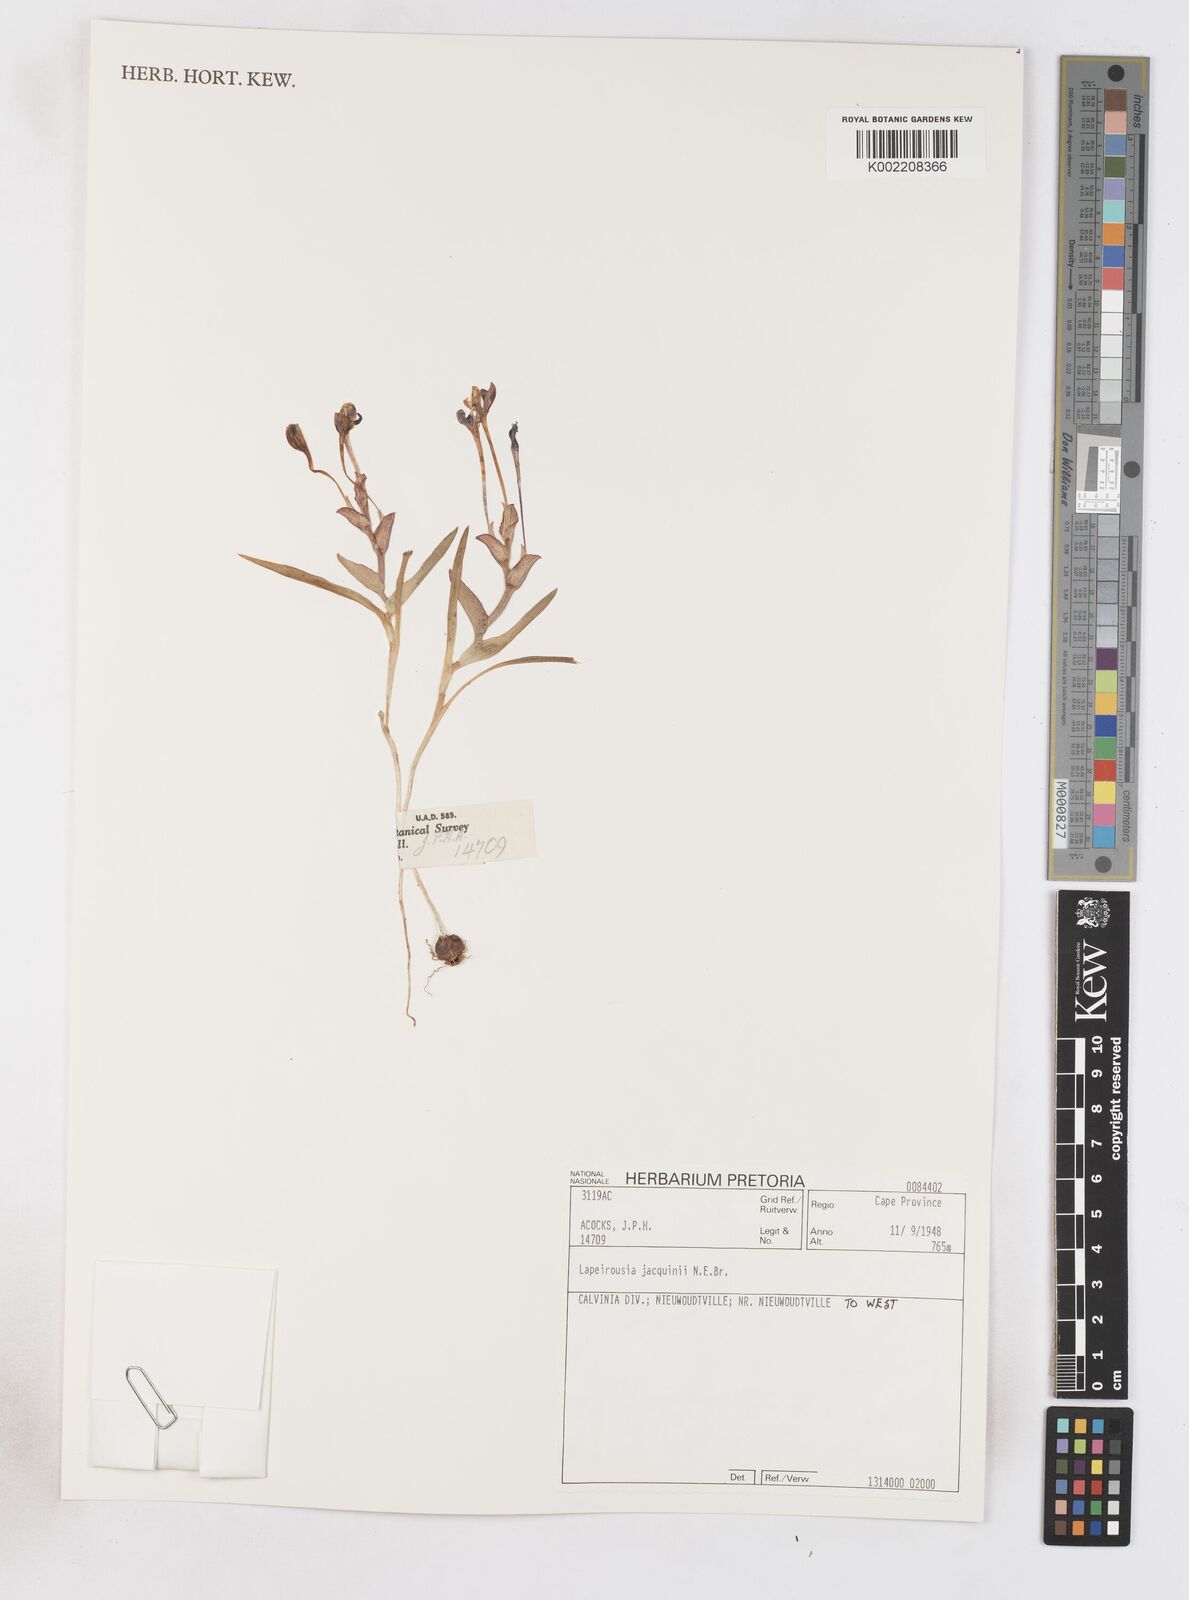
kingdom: Plantae
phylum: Tracheophyta
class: Liliopsida
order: Asparagales
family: Iridaceae
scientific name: Iridaceae
